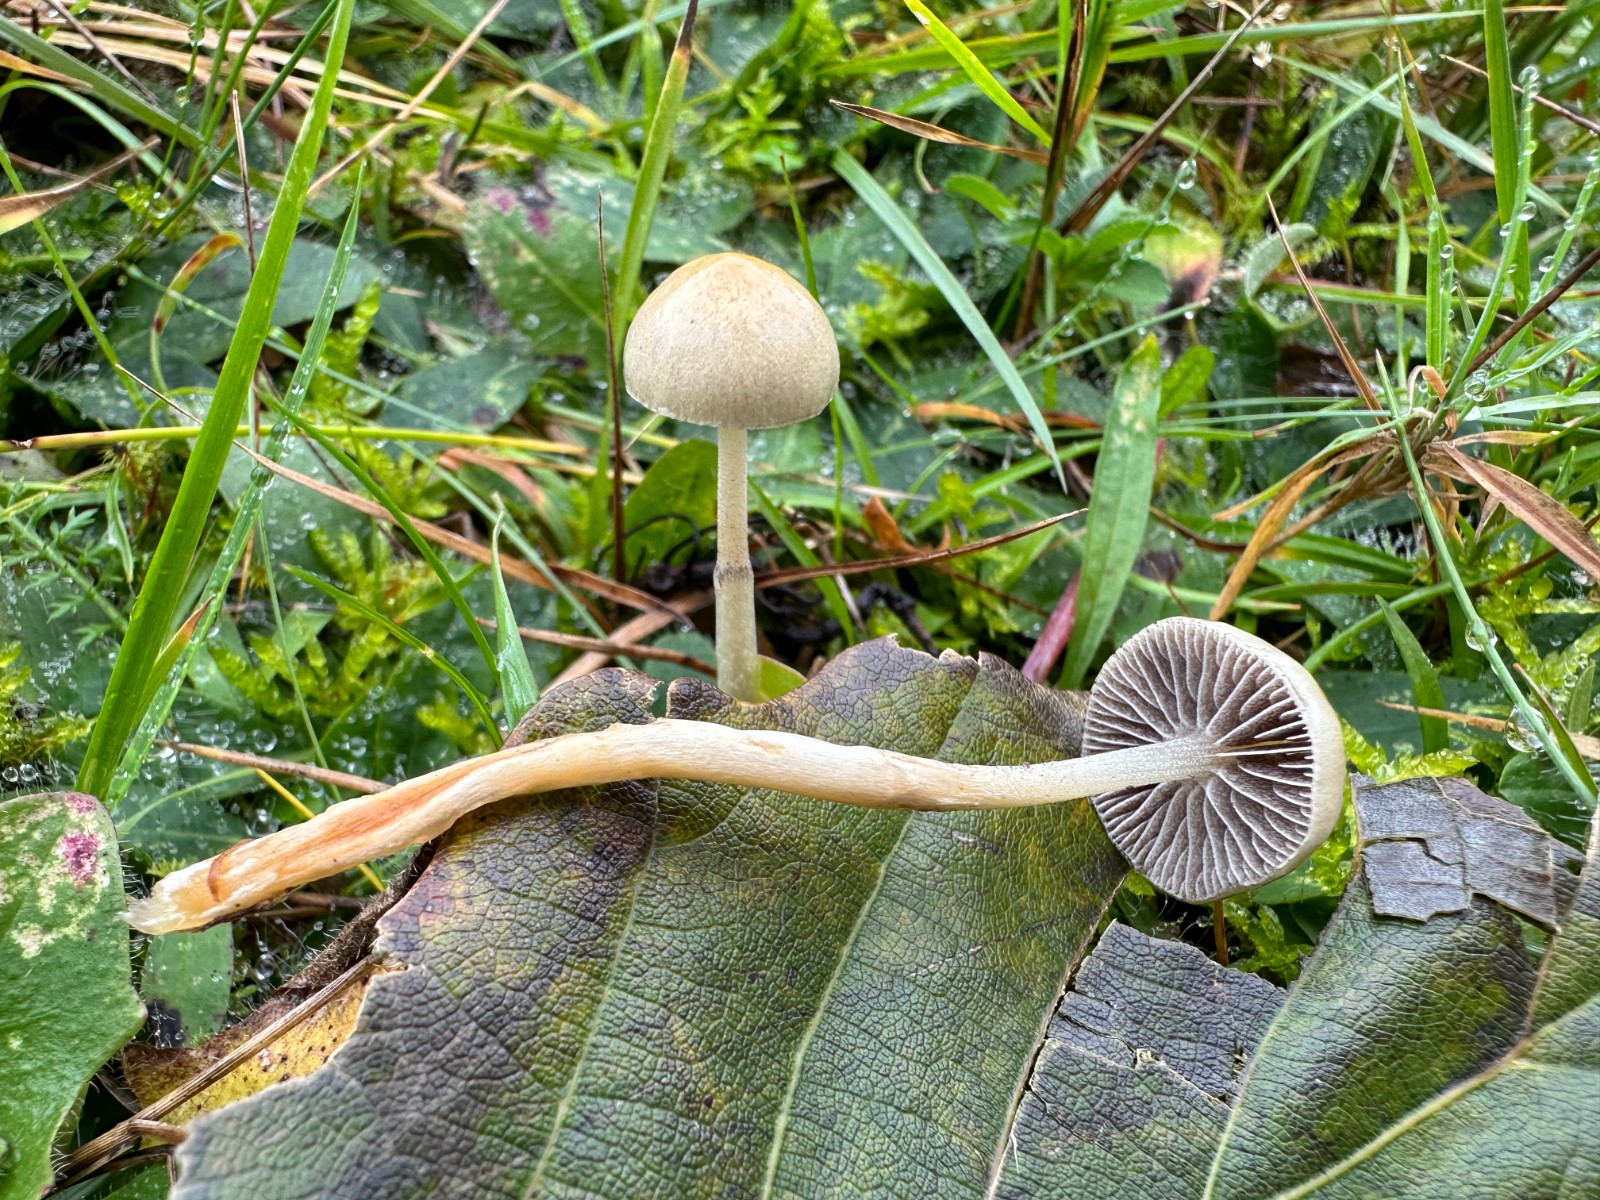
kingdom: Fungi
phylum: Basidiomycota
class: Agaricomycetes
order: Agaricales
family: Strophariaceae
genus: Protostropharia
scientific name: Protostropharia semiglobata
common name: halvkugleformet bredblad
